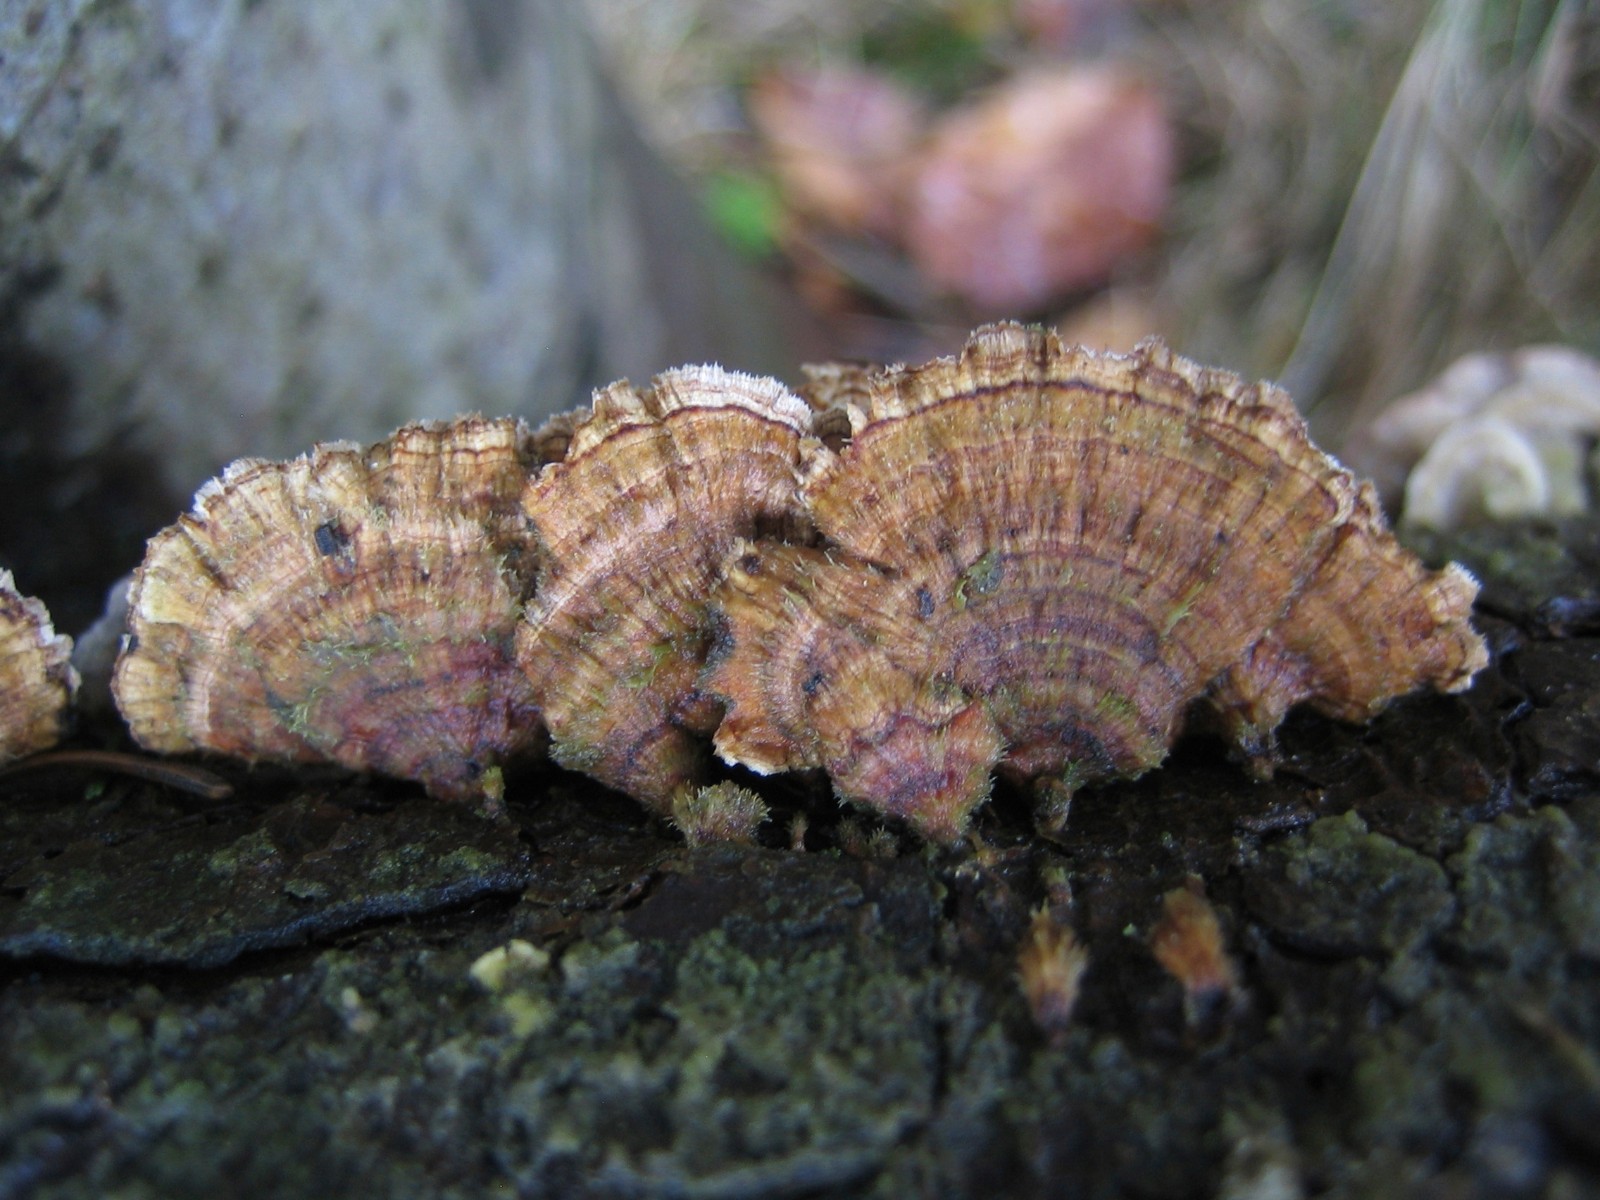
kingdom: Fungi
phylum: Basidiomycota
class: Agaricomycetes
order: Russulales
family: Stereaceae
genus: Stereum
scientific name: Stereum sanguinolentum
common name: blødende lædersvamp
